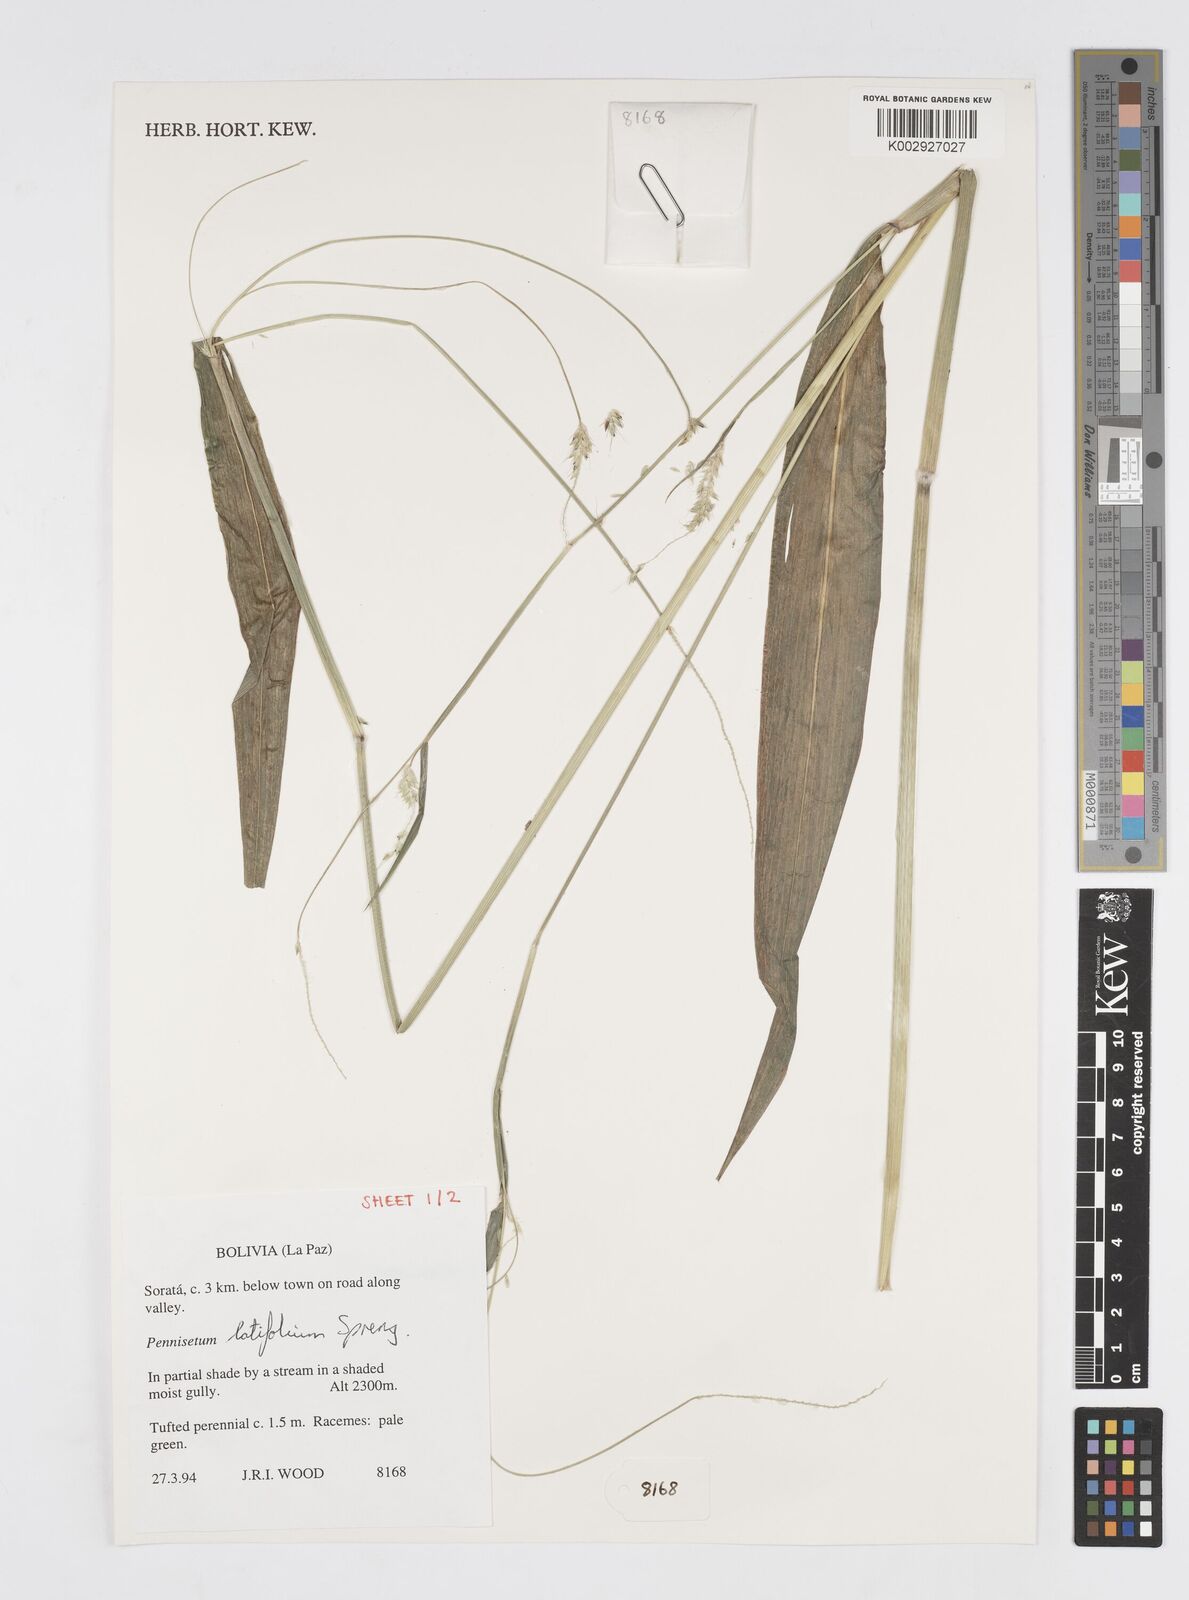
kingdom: Plantae
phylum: Tracheophyta
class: Liliopsida
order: Poales
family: Poaceae
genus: Cenchrus
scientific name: Cenchrus latifolius
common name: Sandbur
